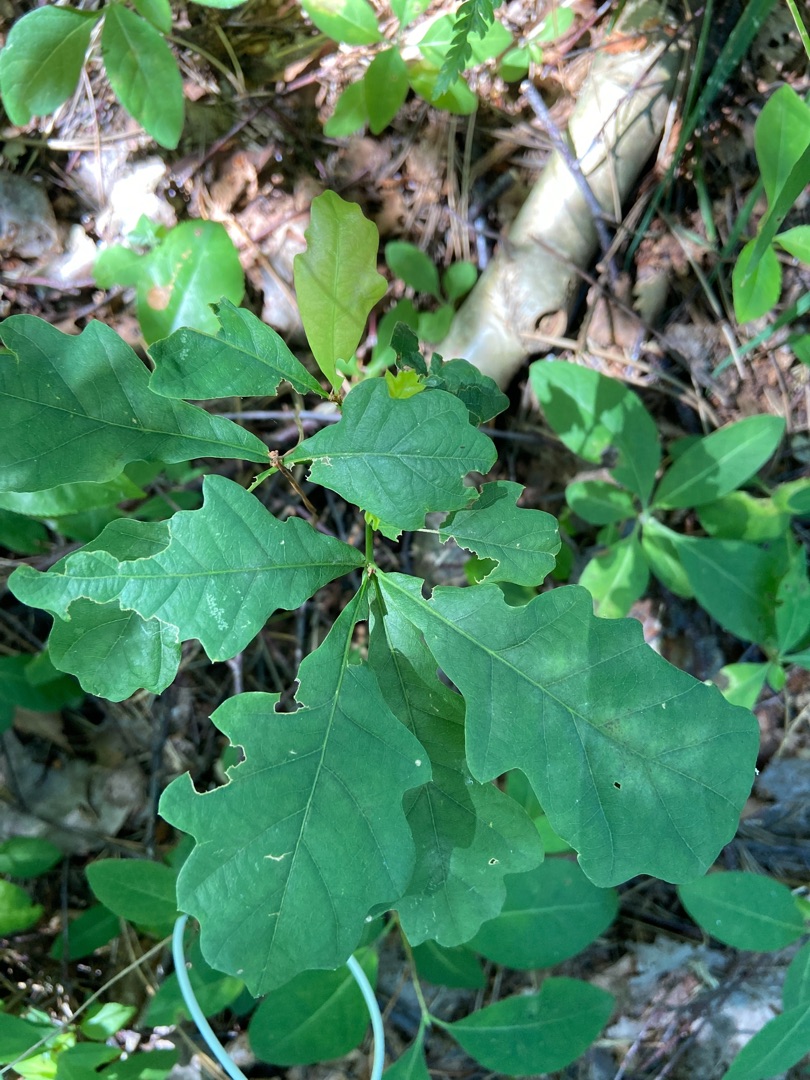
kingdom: Plantae
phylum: Tracheophyta
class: Magnoliopsida
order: Fagales
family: Fagaceae
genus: Quercus
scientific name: Quercus robur
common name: Stilk-eg/almindelig eg
